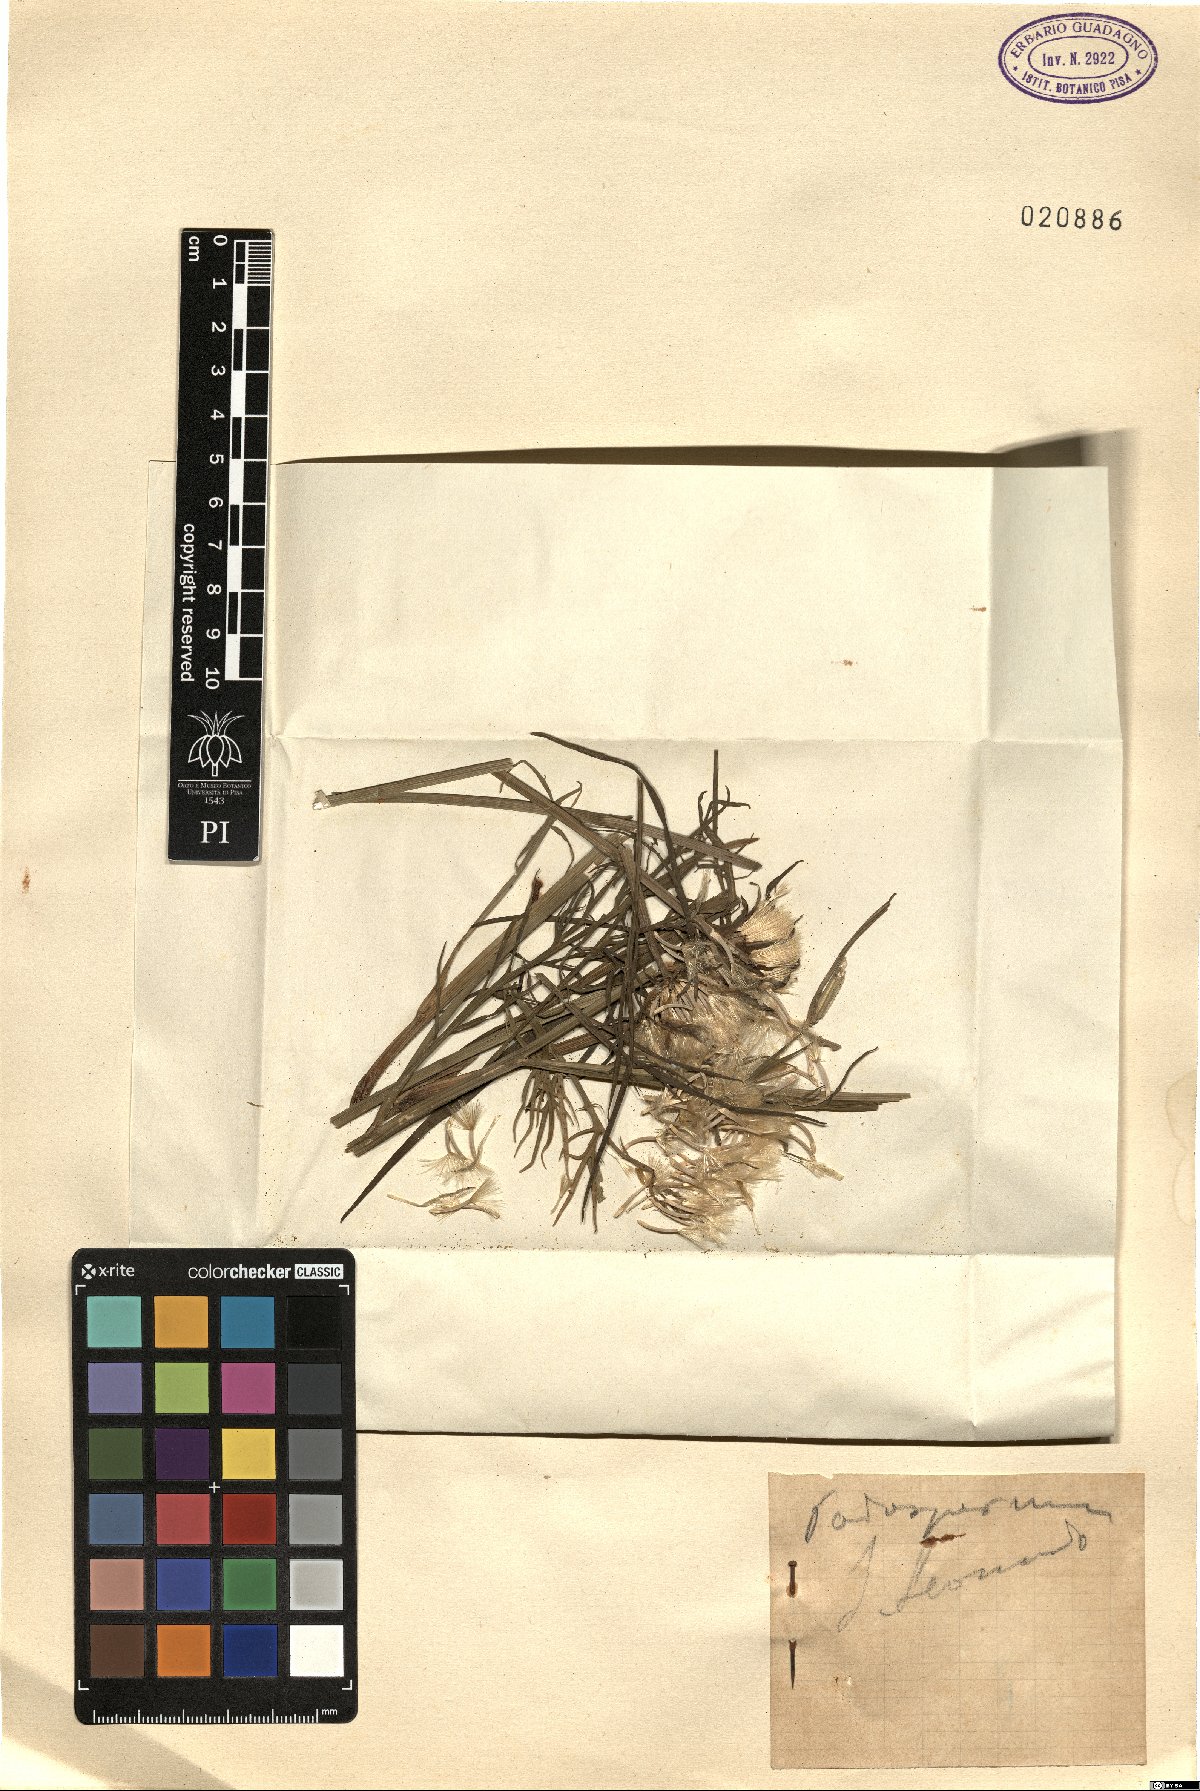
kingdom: Plantae
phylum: Tracheophyta
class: Magnoliopsida
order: Asterales
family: Asteraceae
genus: Scorzonera
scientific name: Scorzonera
